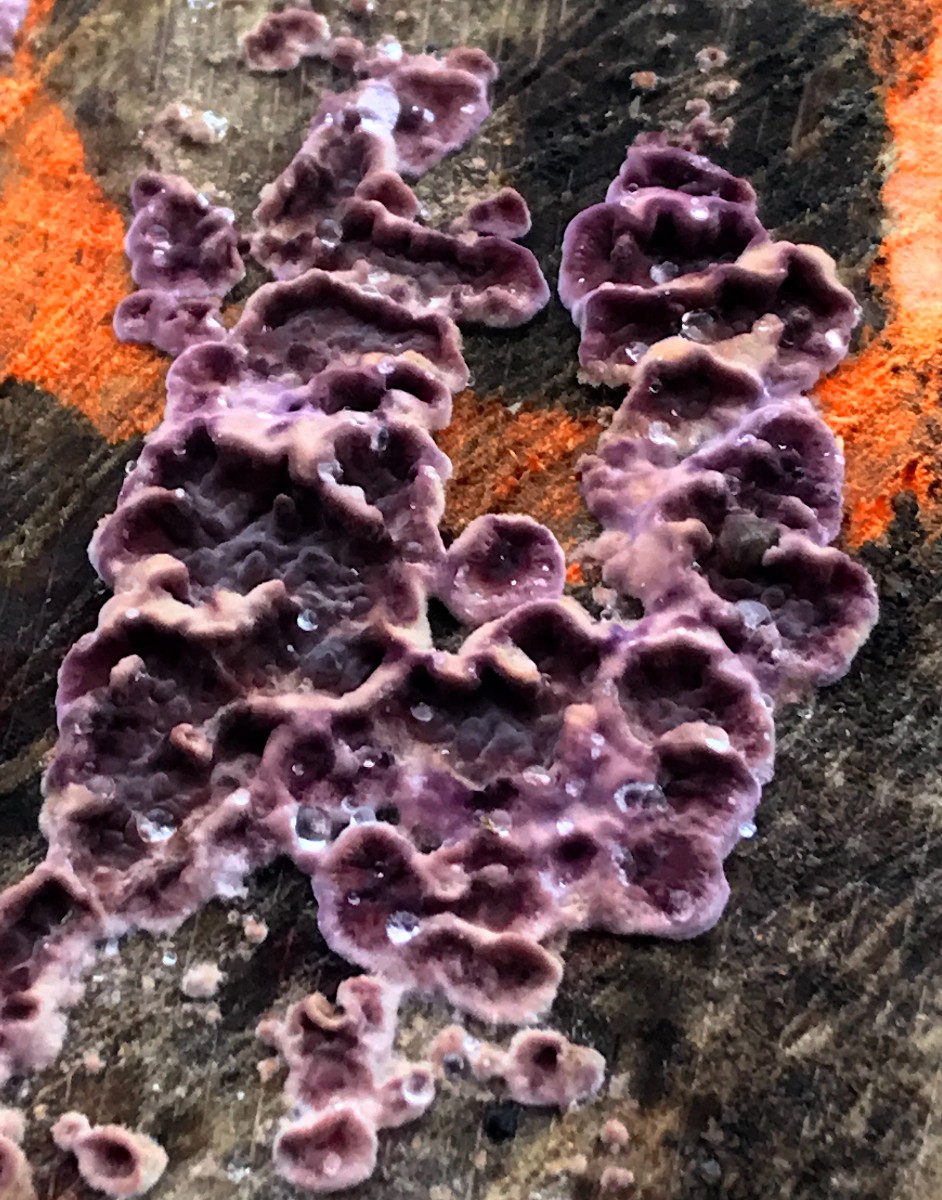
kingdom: Fungi
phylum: Basidiomycota
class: Agaricomycetes
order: Agaricales
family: Cyphellaceae
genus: Chondrostereum
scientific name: Chondrostereum purpureum
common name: purpurlædersvamp
